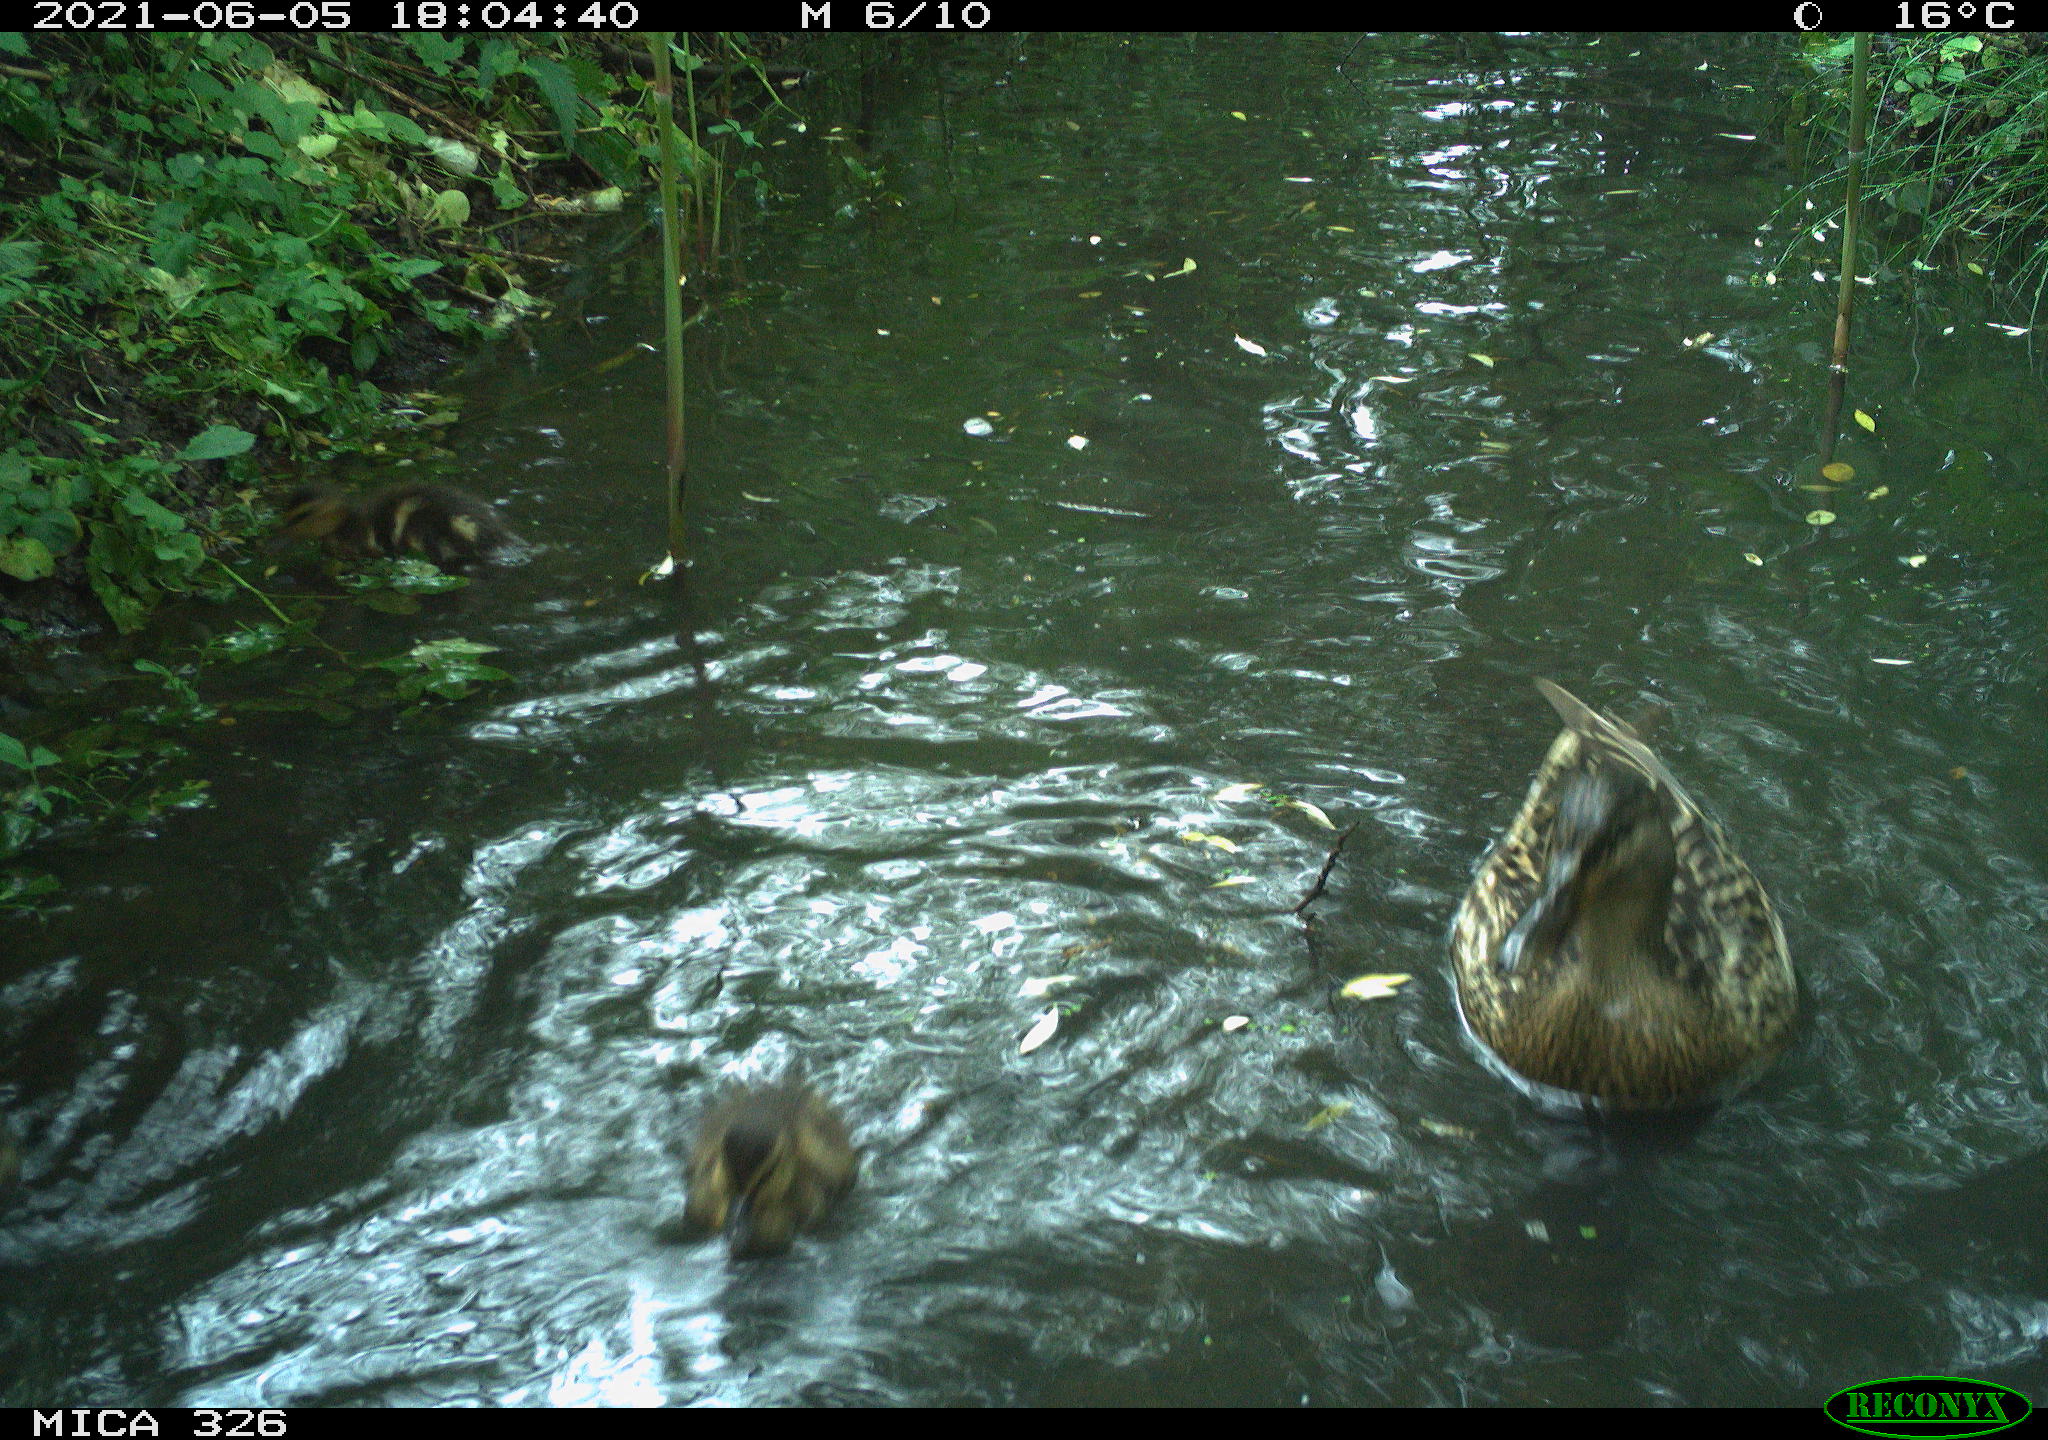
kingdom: Animalia
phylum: Chordata
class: Aves
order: Anseriformes
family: Anatidae
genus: Anas
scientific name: Anas platyrhynchos
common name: Mallard
